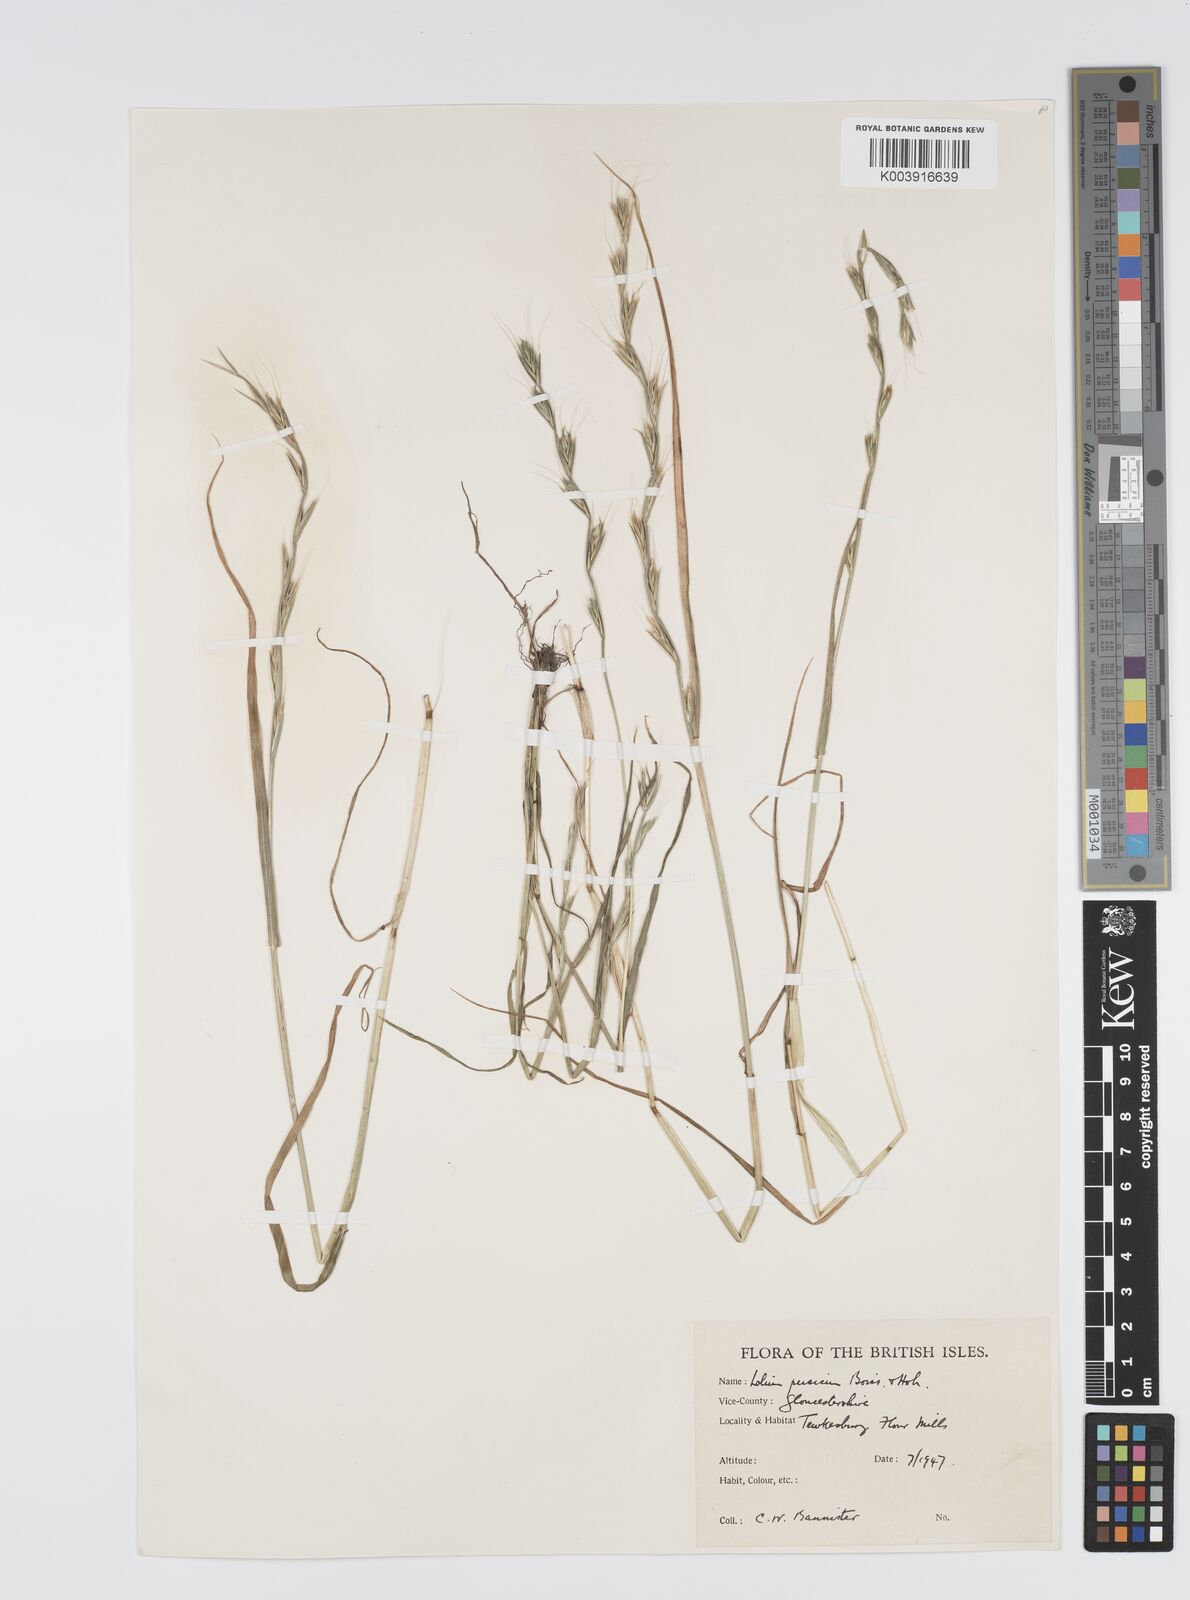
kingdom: Plantae
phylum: Tracheophyta
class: Liliopsida
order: Poales
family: Poaceae
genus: Lolium
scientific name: Lolium persicum
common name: Persian ryegrass
